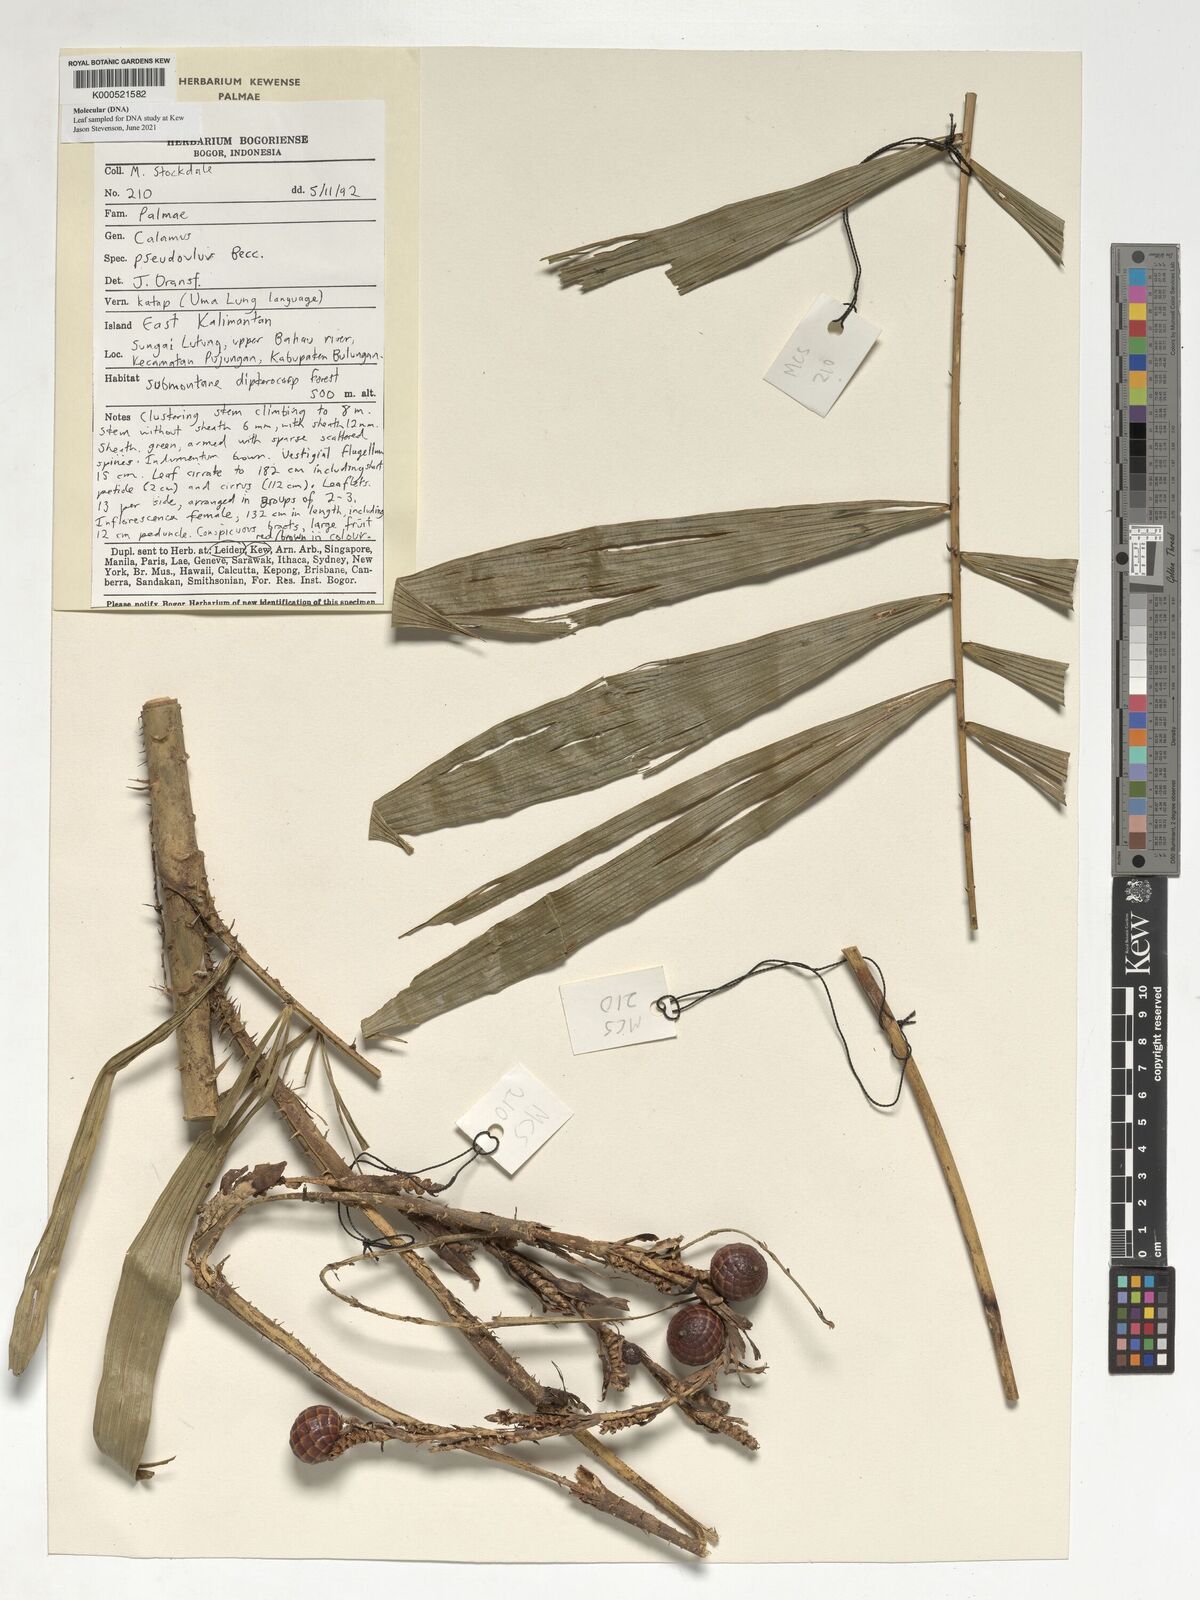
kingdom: Plantae
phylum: Tracheophyta
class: Liliopsida
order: Arecales
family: Arecaceae
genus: Calamus
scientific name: Calamus erioacanthus
